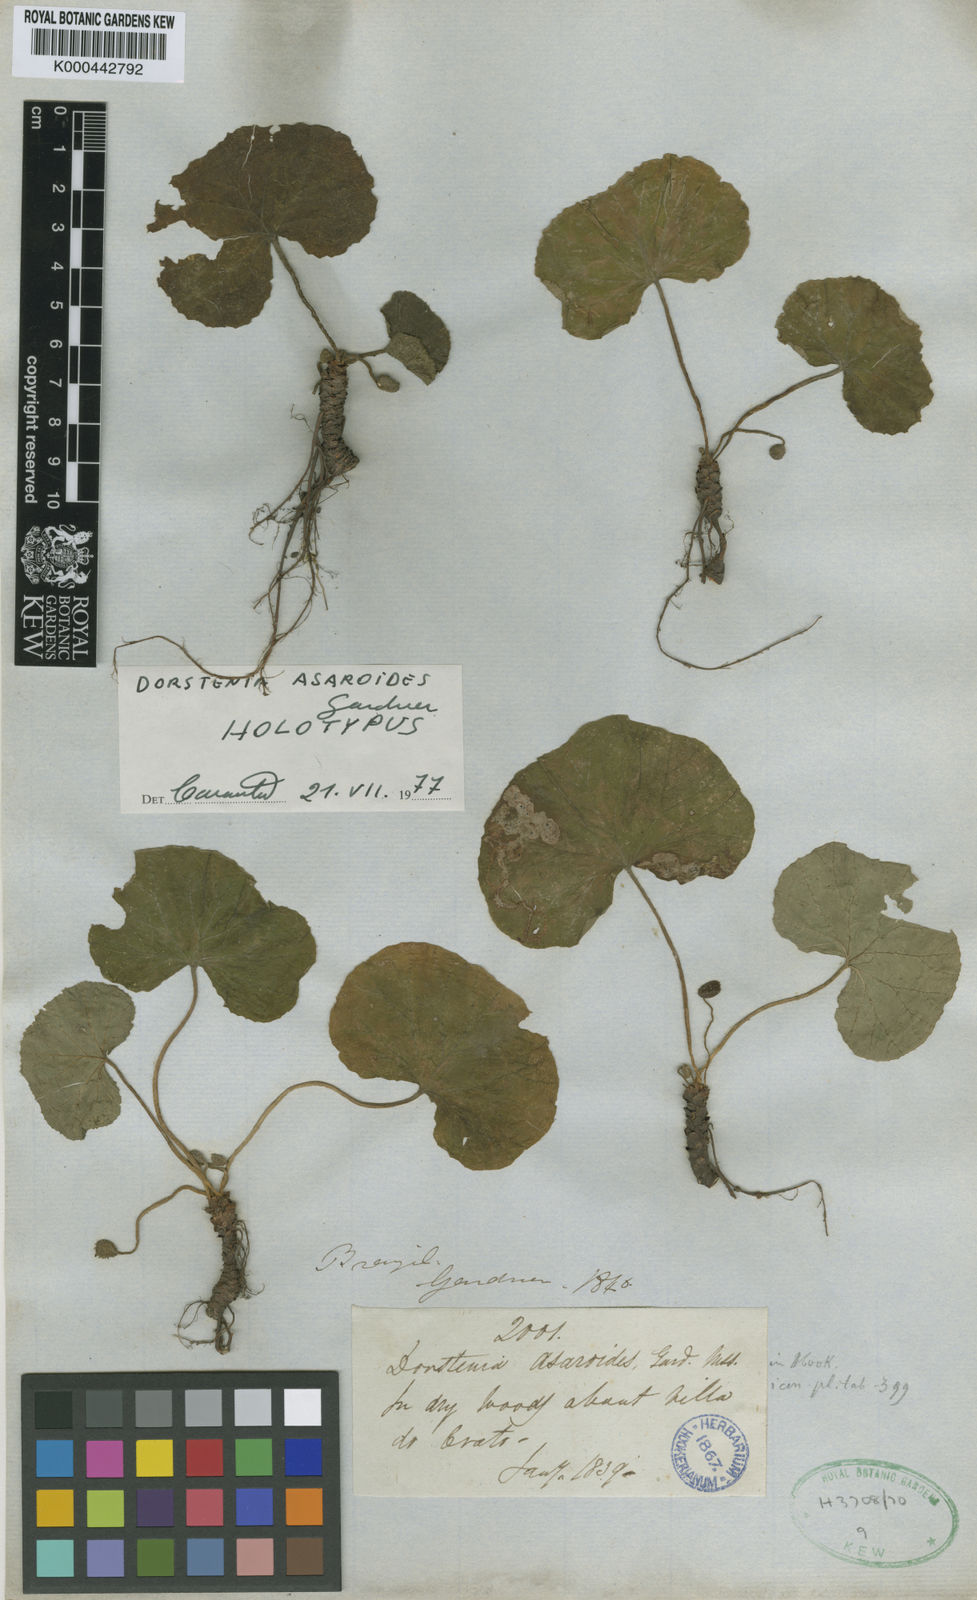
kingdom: Plantae
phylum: Tracheophyta
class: Magnoliopsida
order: Rosales
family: Moraceae
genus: Dorstenia
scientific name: Dorstenia cayapia
